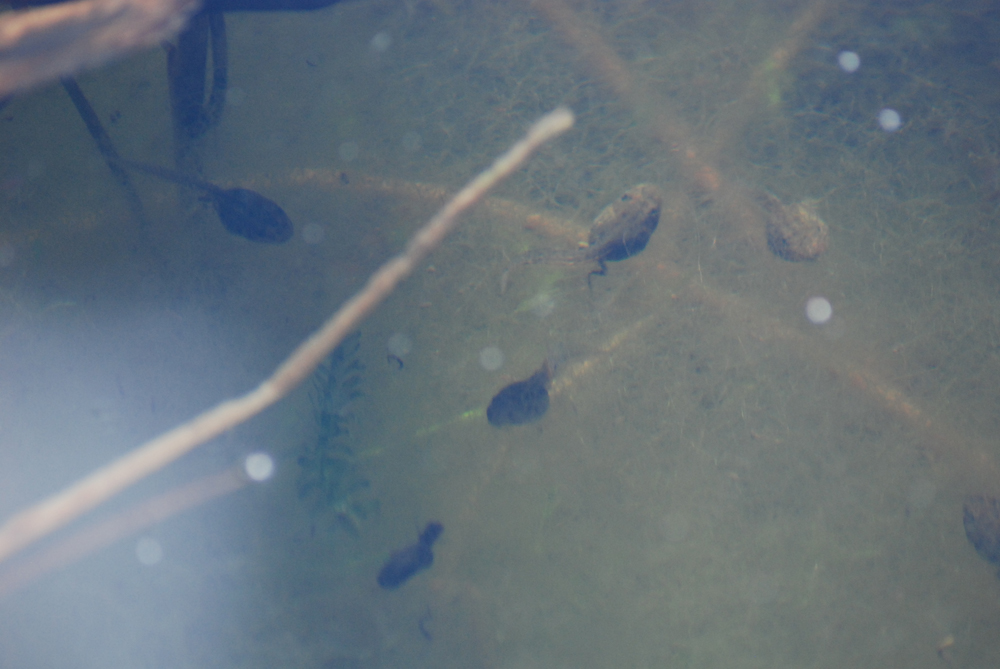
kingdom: Animalia
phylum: Chordata
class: Amphibia
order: Anura
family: Ranidae
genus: Pelophylax
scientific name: Pelophylax lessonae
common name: Pool frog
